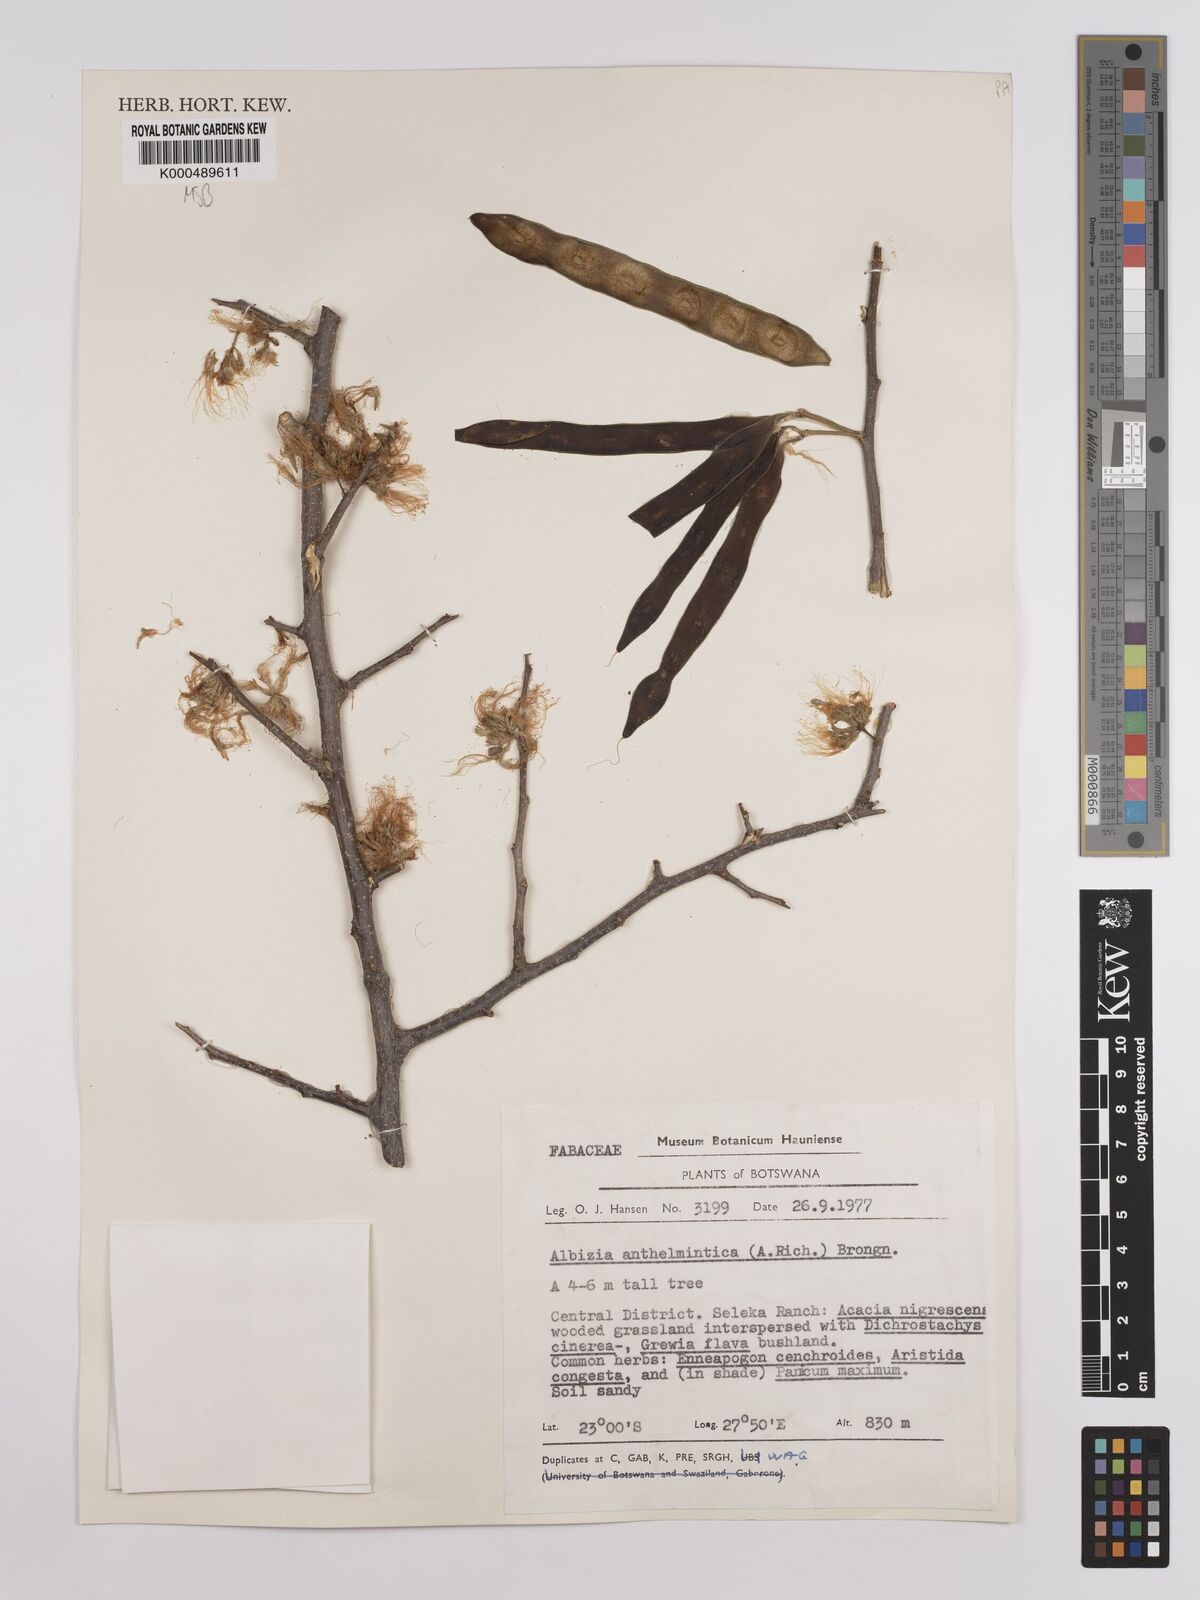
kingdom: Plantae
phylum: Tracheophyta
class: Magnoliopsida
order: Fabales
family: Fabaceae
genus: Albizia
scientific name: Albizia anthelmintica
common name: Worm-bark false-thorn
